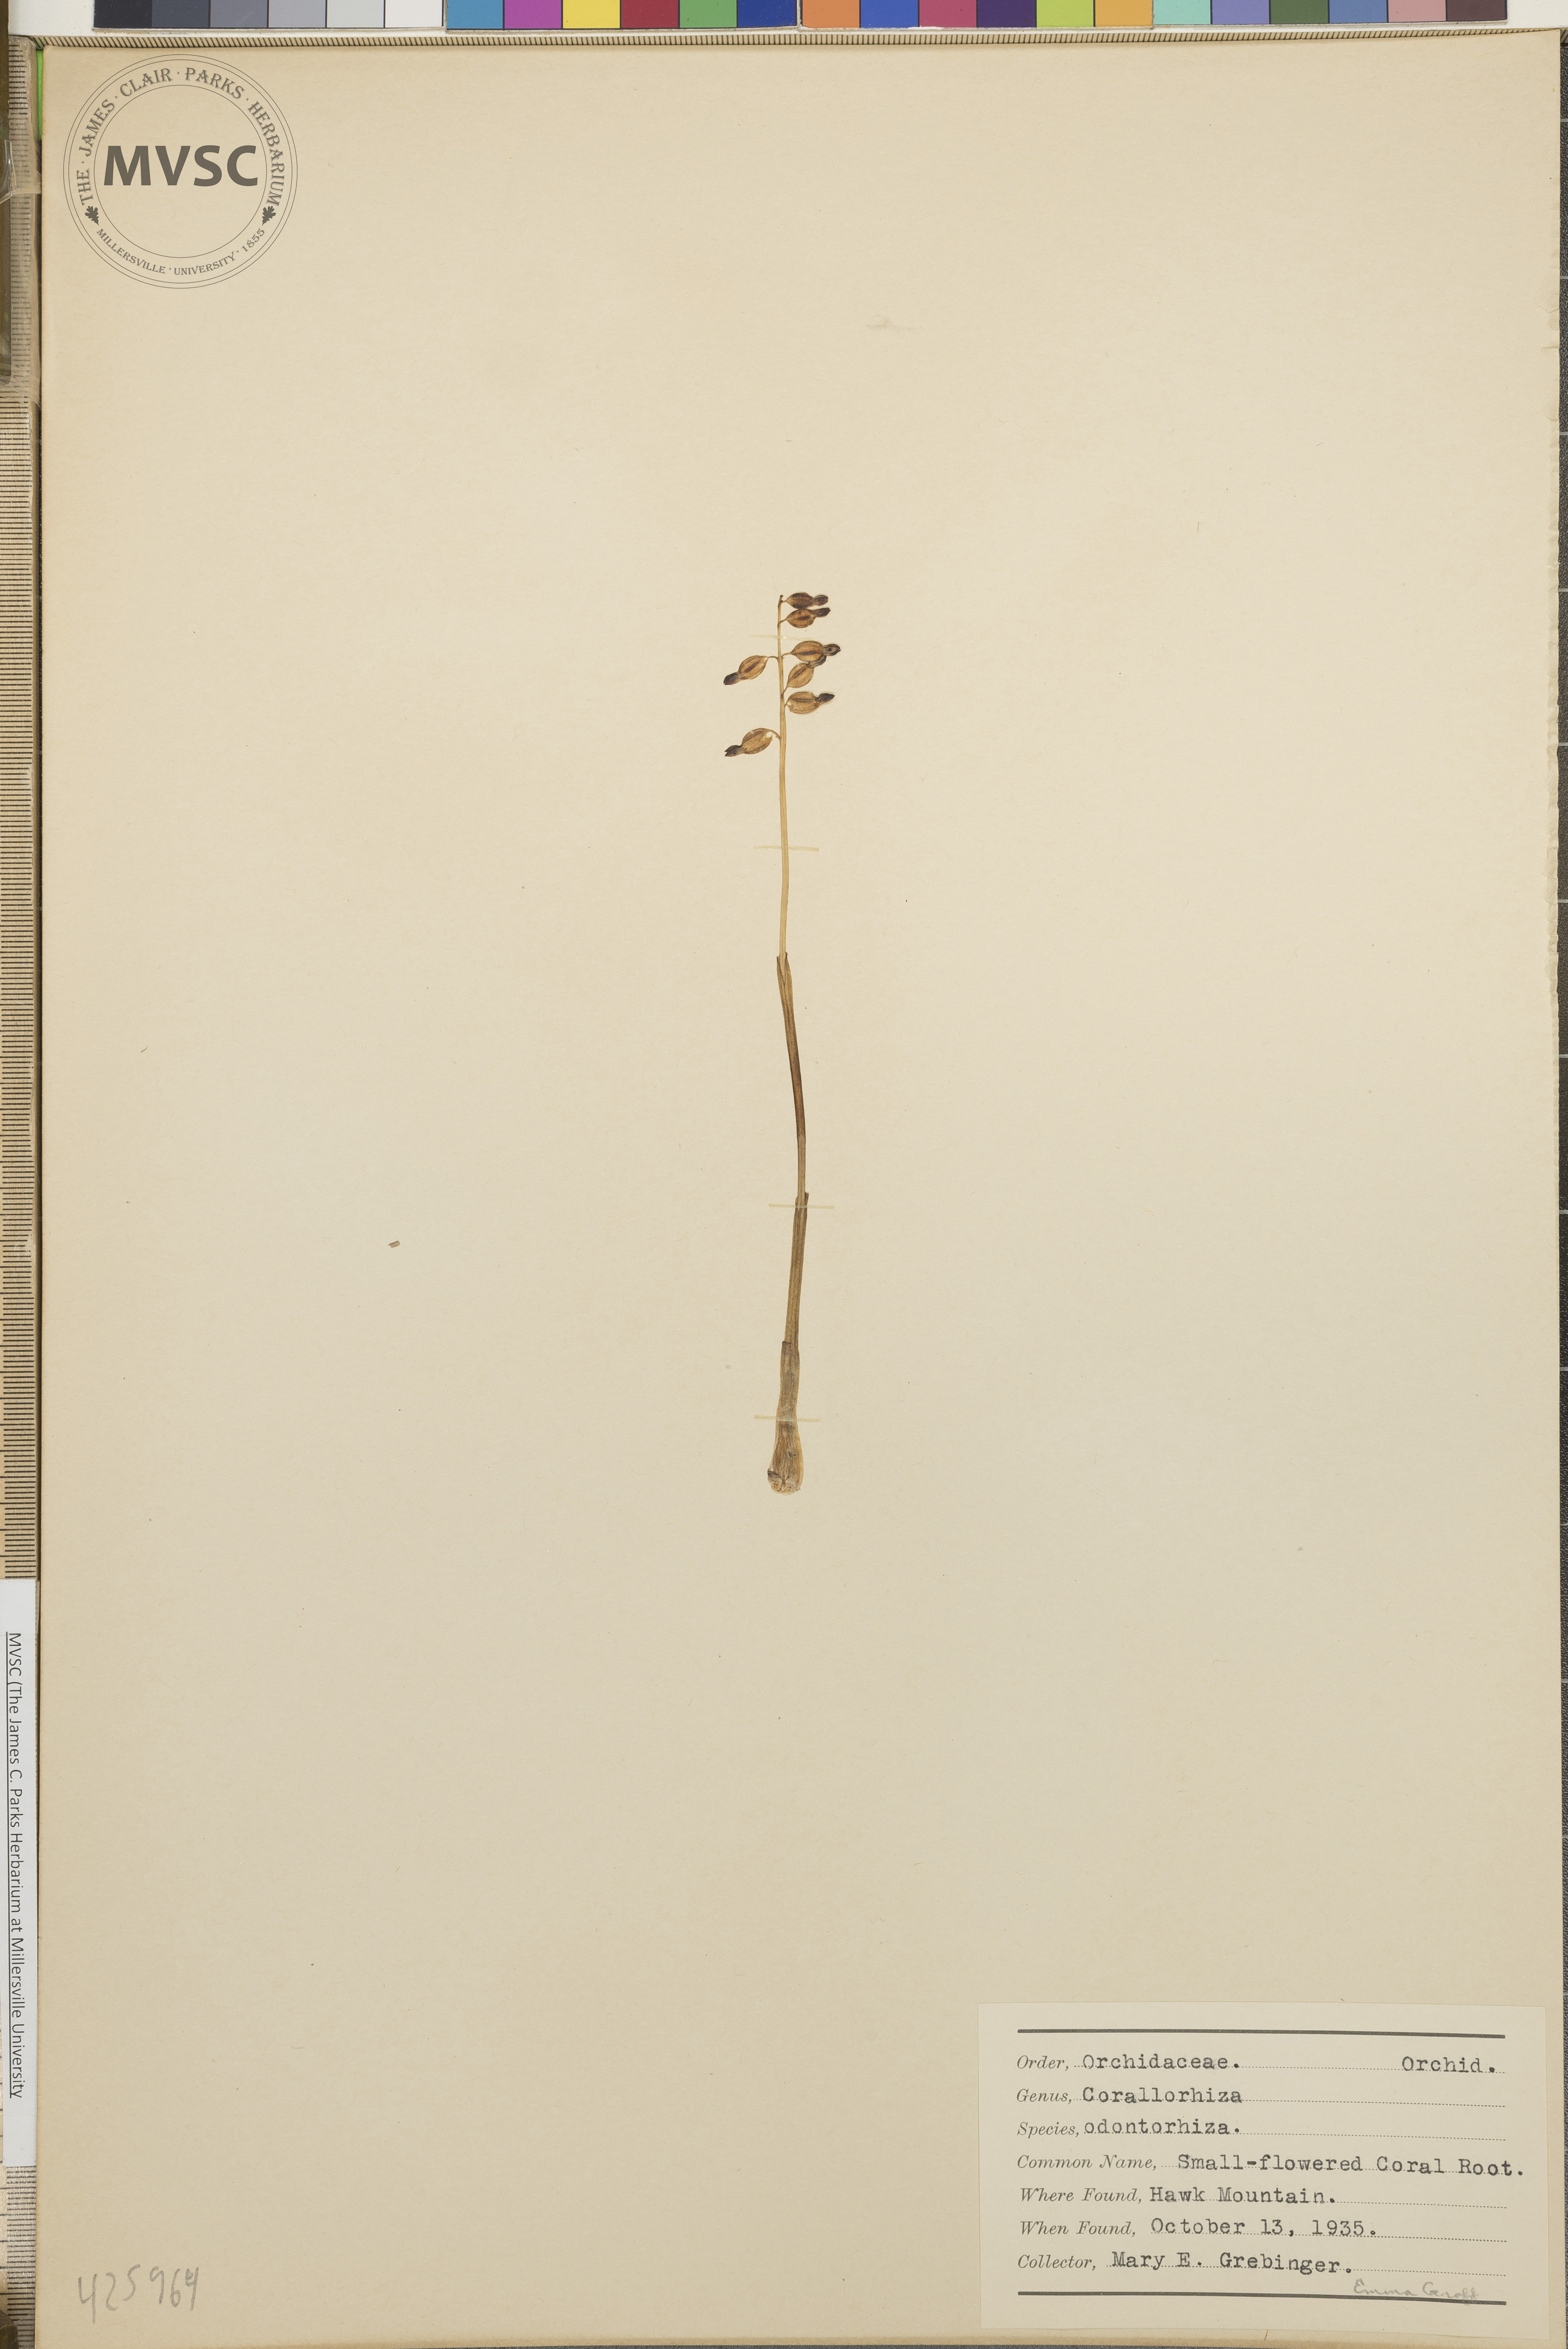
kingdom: Plantae
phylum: Tracheophyta
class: Liliopsida
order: Asparagales
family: Orchidaceae
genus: Corallorhiza
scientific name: Corallorhiza odontorhiza
